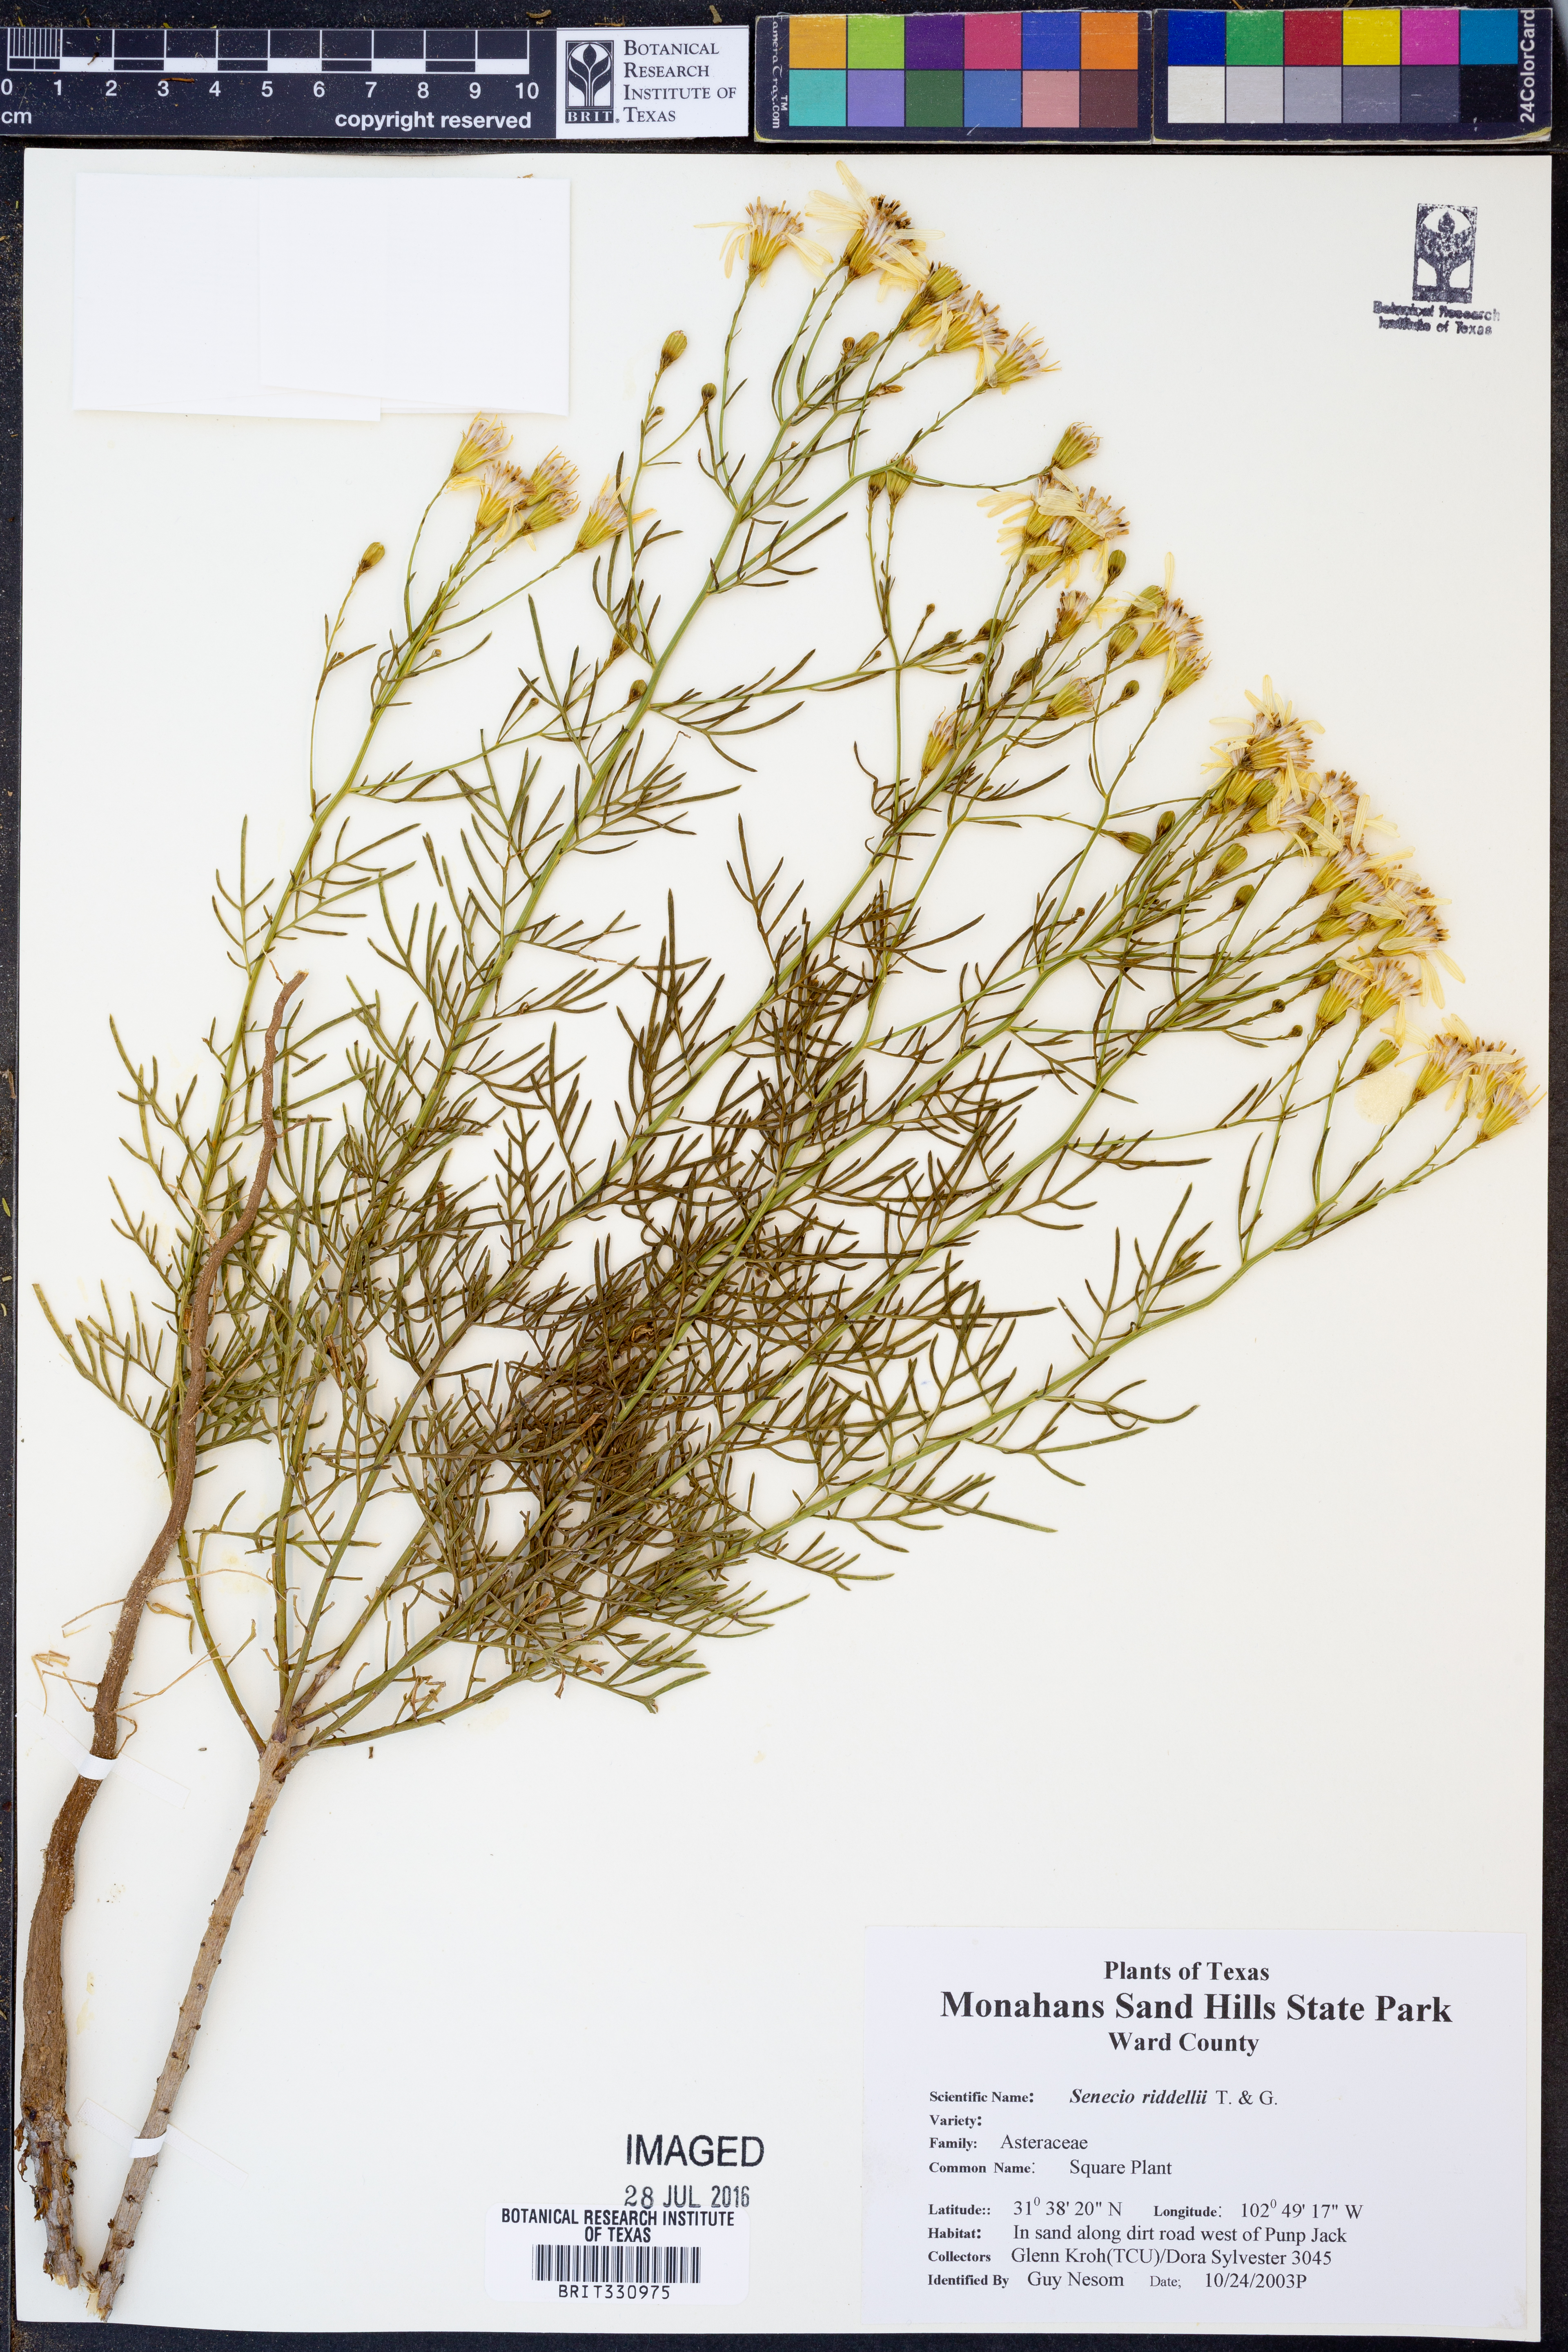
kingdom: Plantae
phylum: Tracheophyta
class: Magnoliopsida
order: Asterales
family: Asteraceae
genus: Senecio
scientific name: Senecio riddellii
